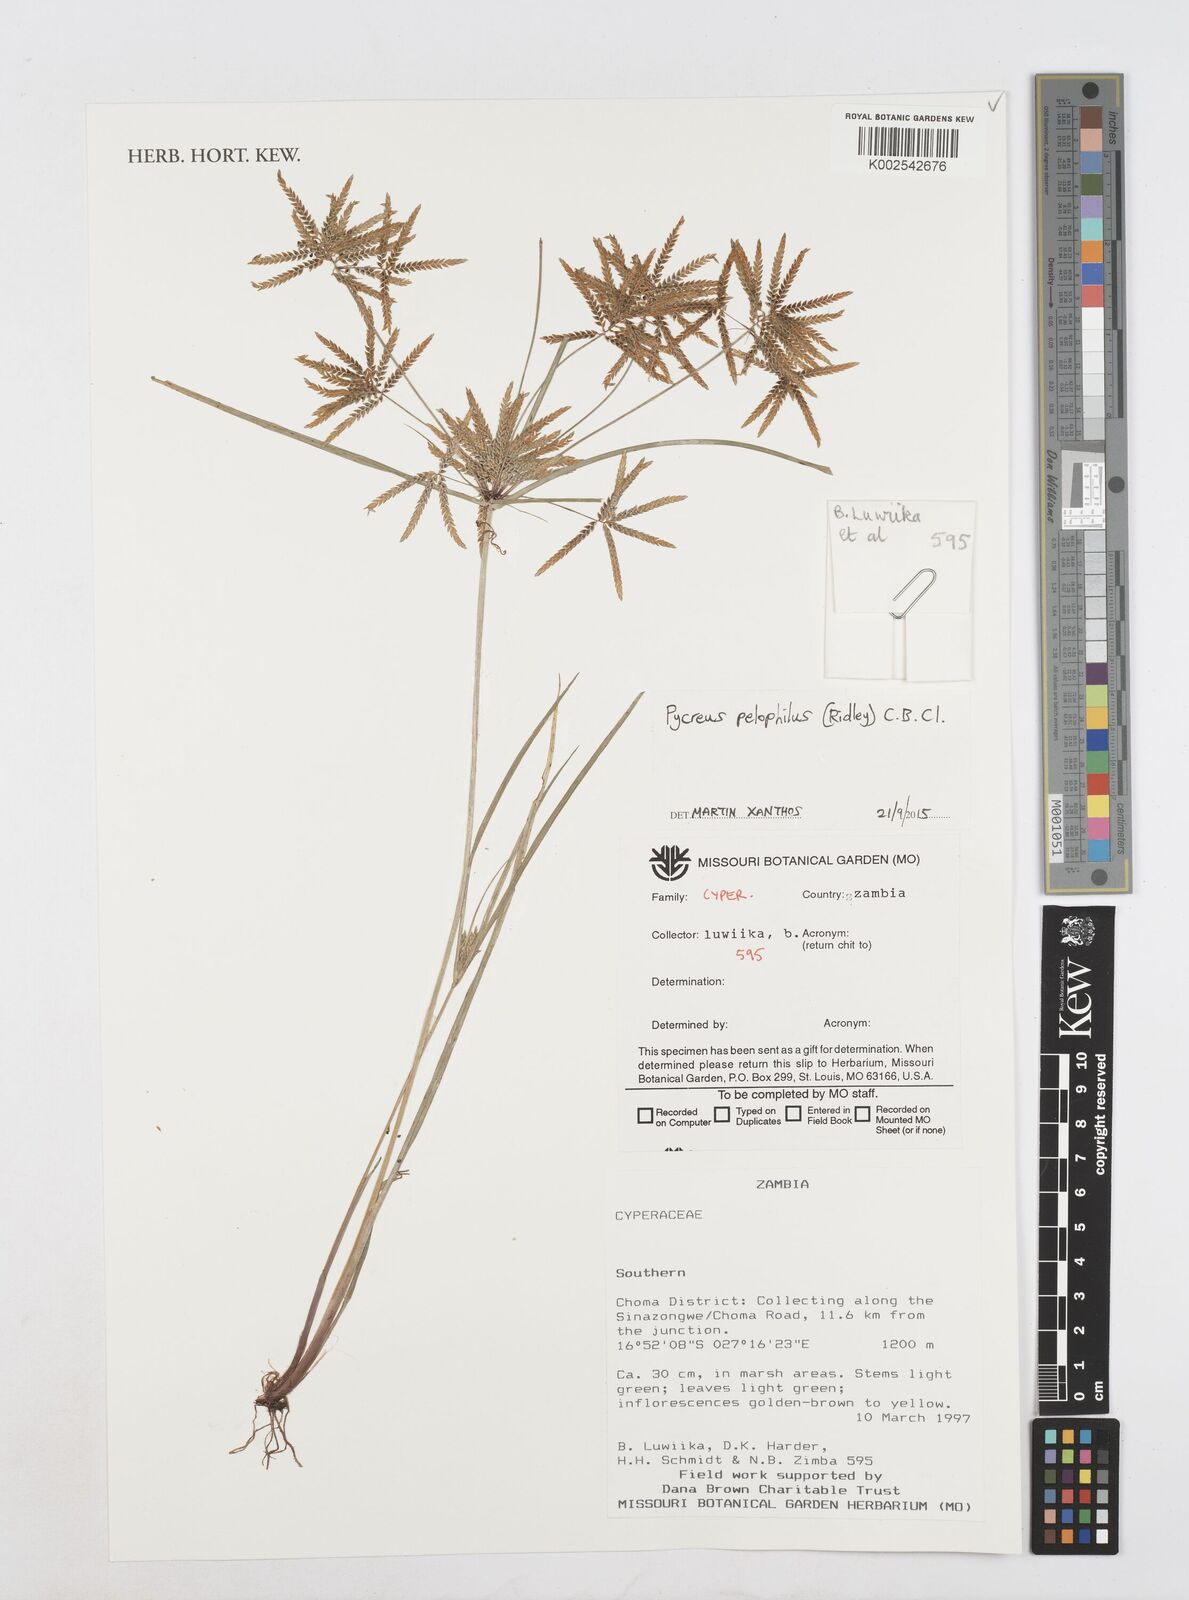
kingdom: Plantae
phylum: Tracheophyta
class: Liliopsida
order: Poales
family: Cyperaceae
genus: Cyperus
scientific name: Cyperus pelophilus
